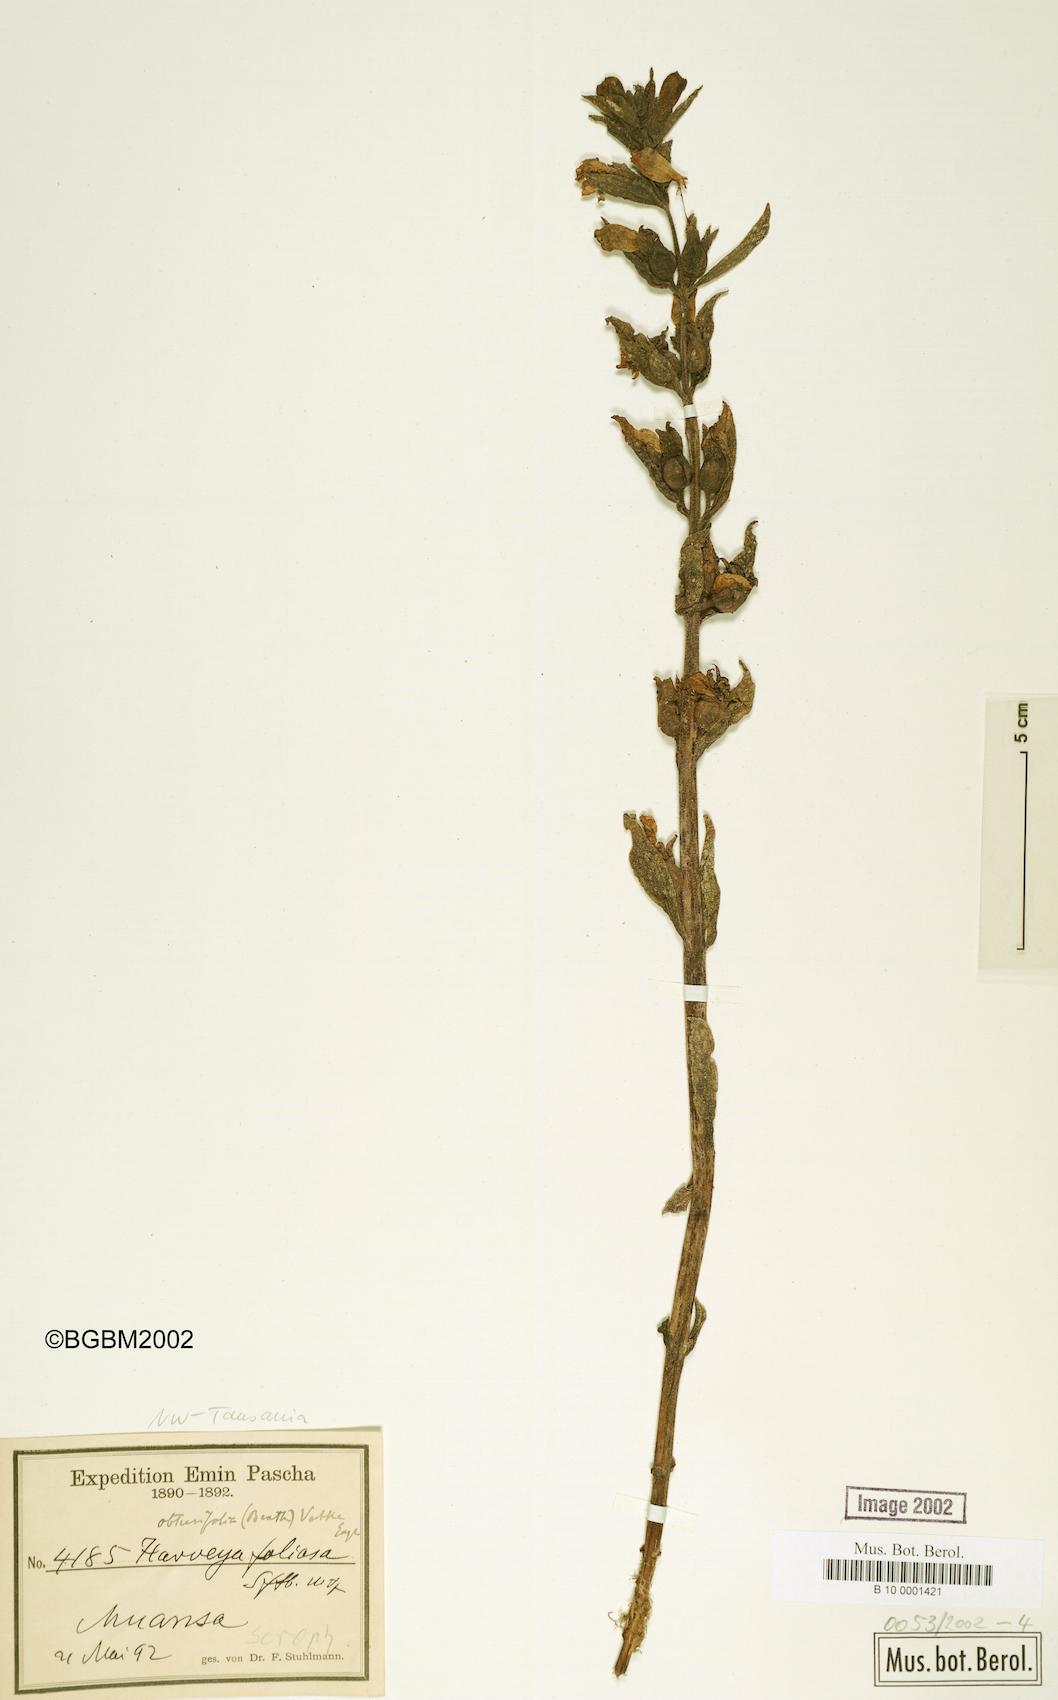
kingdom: Plantae
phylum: Tracheophyta
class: Magnoliopsida
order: Lamiales
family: Orobanchaceae
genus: Harveya
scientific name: Harveya obtusifolia
